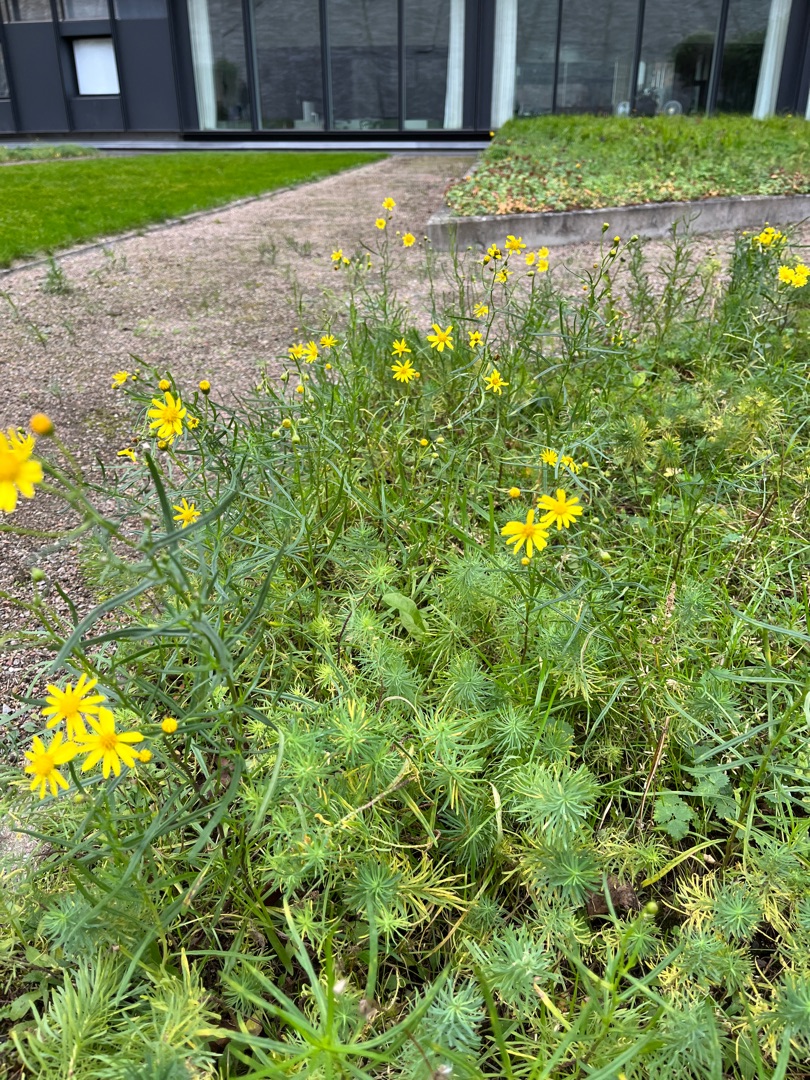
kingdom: Plantae
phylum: Tracheophyta
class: Magnoliopsida
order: Asterales
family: Asteraceae
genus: Senecio
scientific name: Senecio inaequidens
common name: Smalbladet brandbæger
